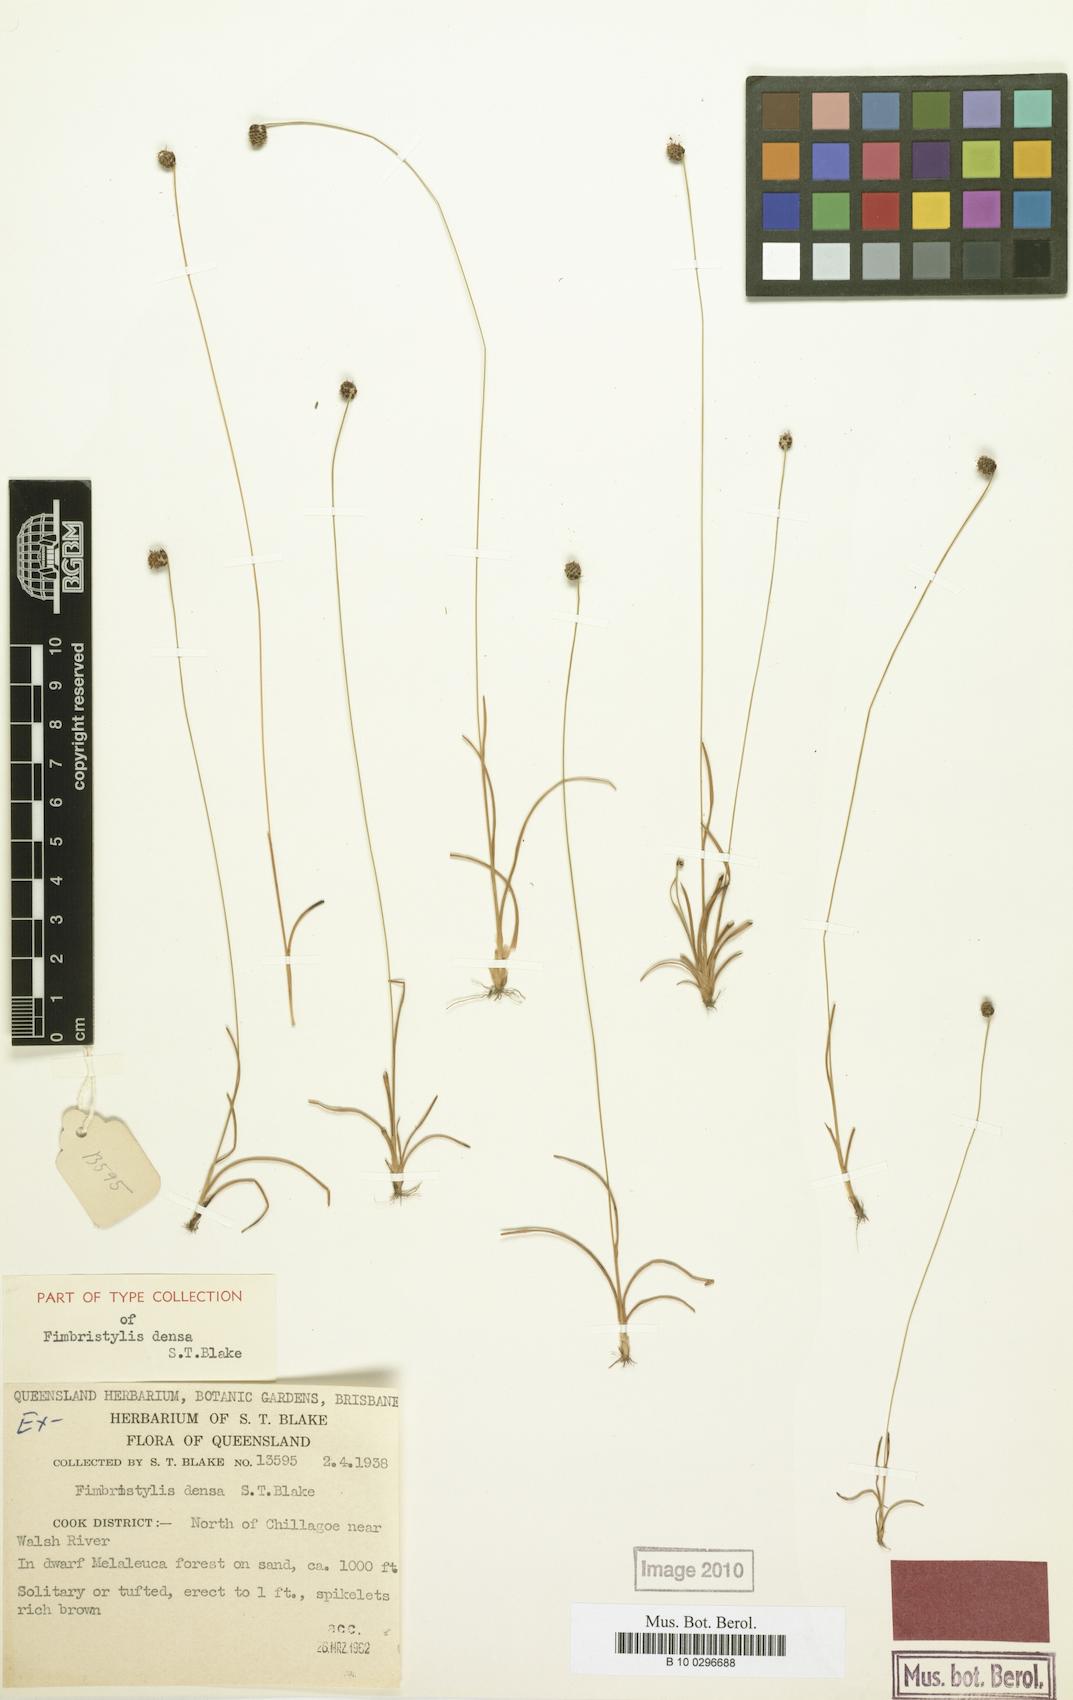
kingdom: Plantae
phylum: Tracheophyta
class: Liliopsida
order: Poales
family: Cyperaceae
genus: Fimbristylis
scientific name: Fimbristylis densa
